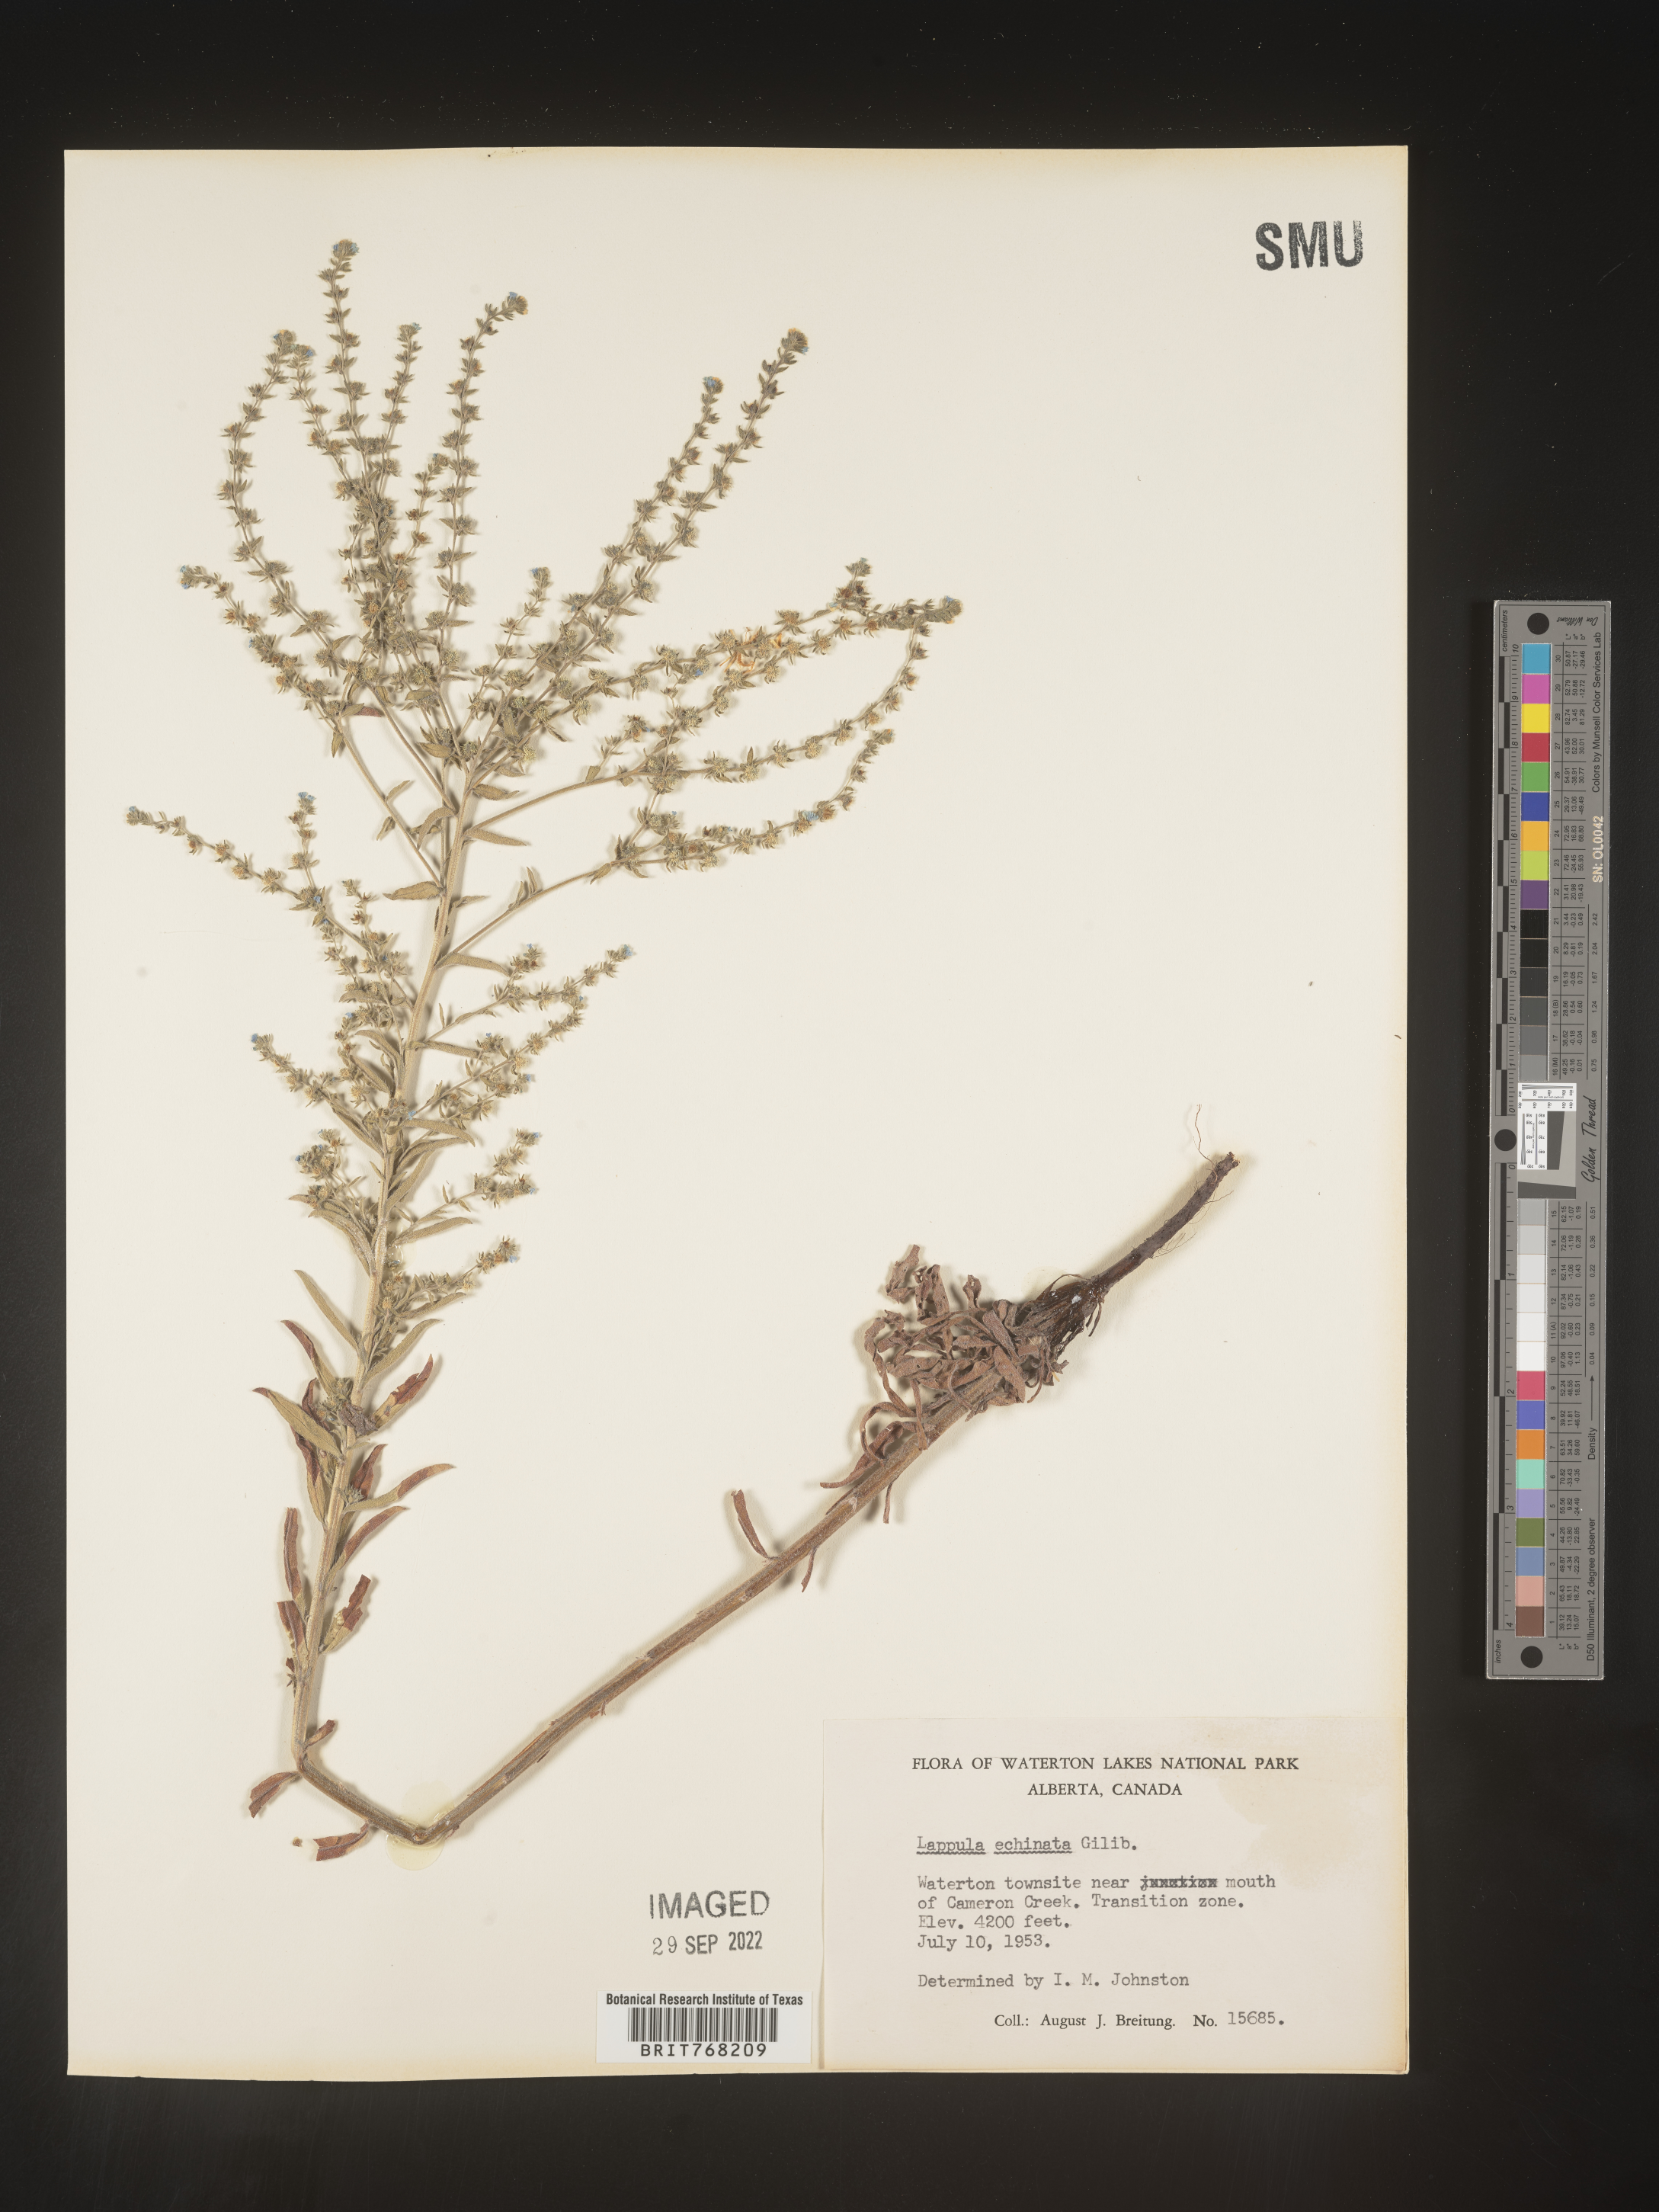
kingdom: Plantae
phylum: Tracheophyta
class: Magnoliopsida
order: Boraginales
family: Boraginaceae
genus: Lappula
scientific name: Lappula
